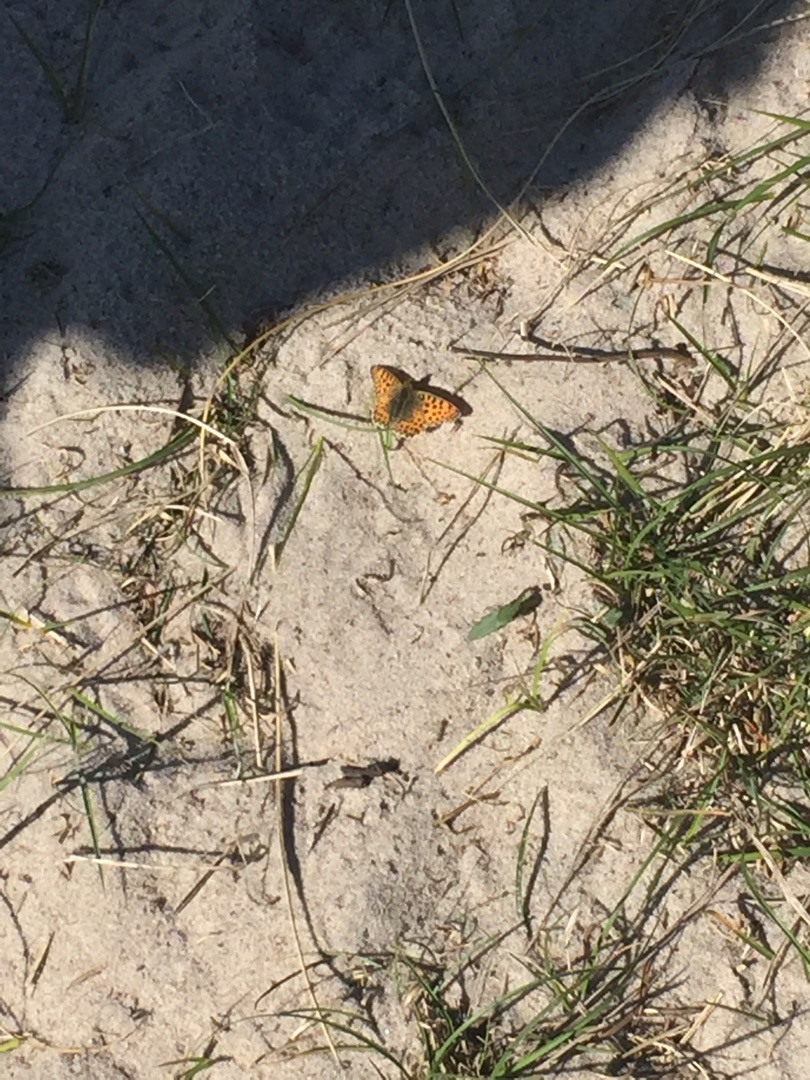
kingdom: Animalia
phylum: Arthropoda
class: Insecta
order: Lepidoptera
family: Nymphalidae
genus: Issoria
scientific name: Issoria lathonia
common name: Storplettet perlemorsommerfugl
